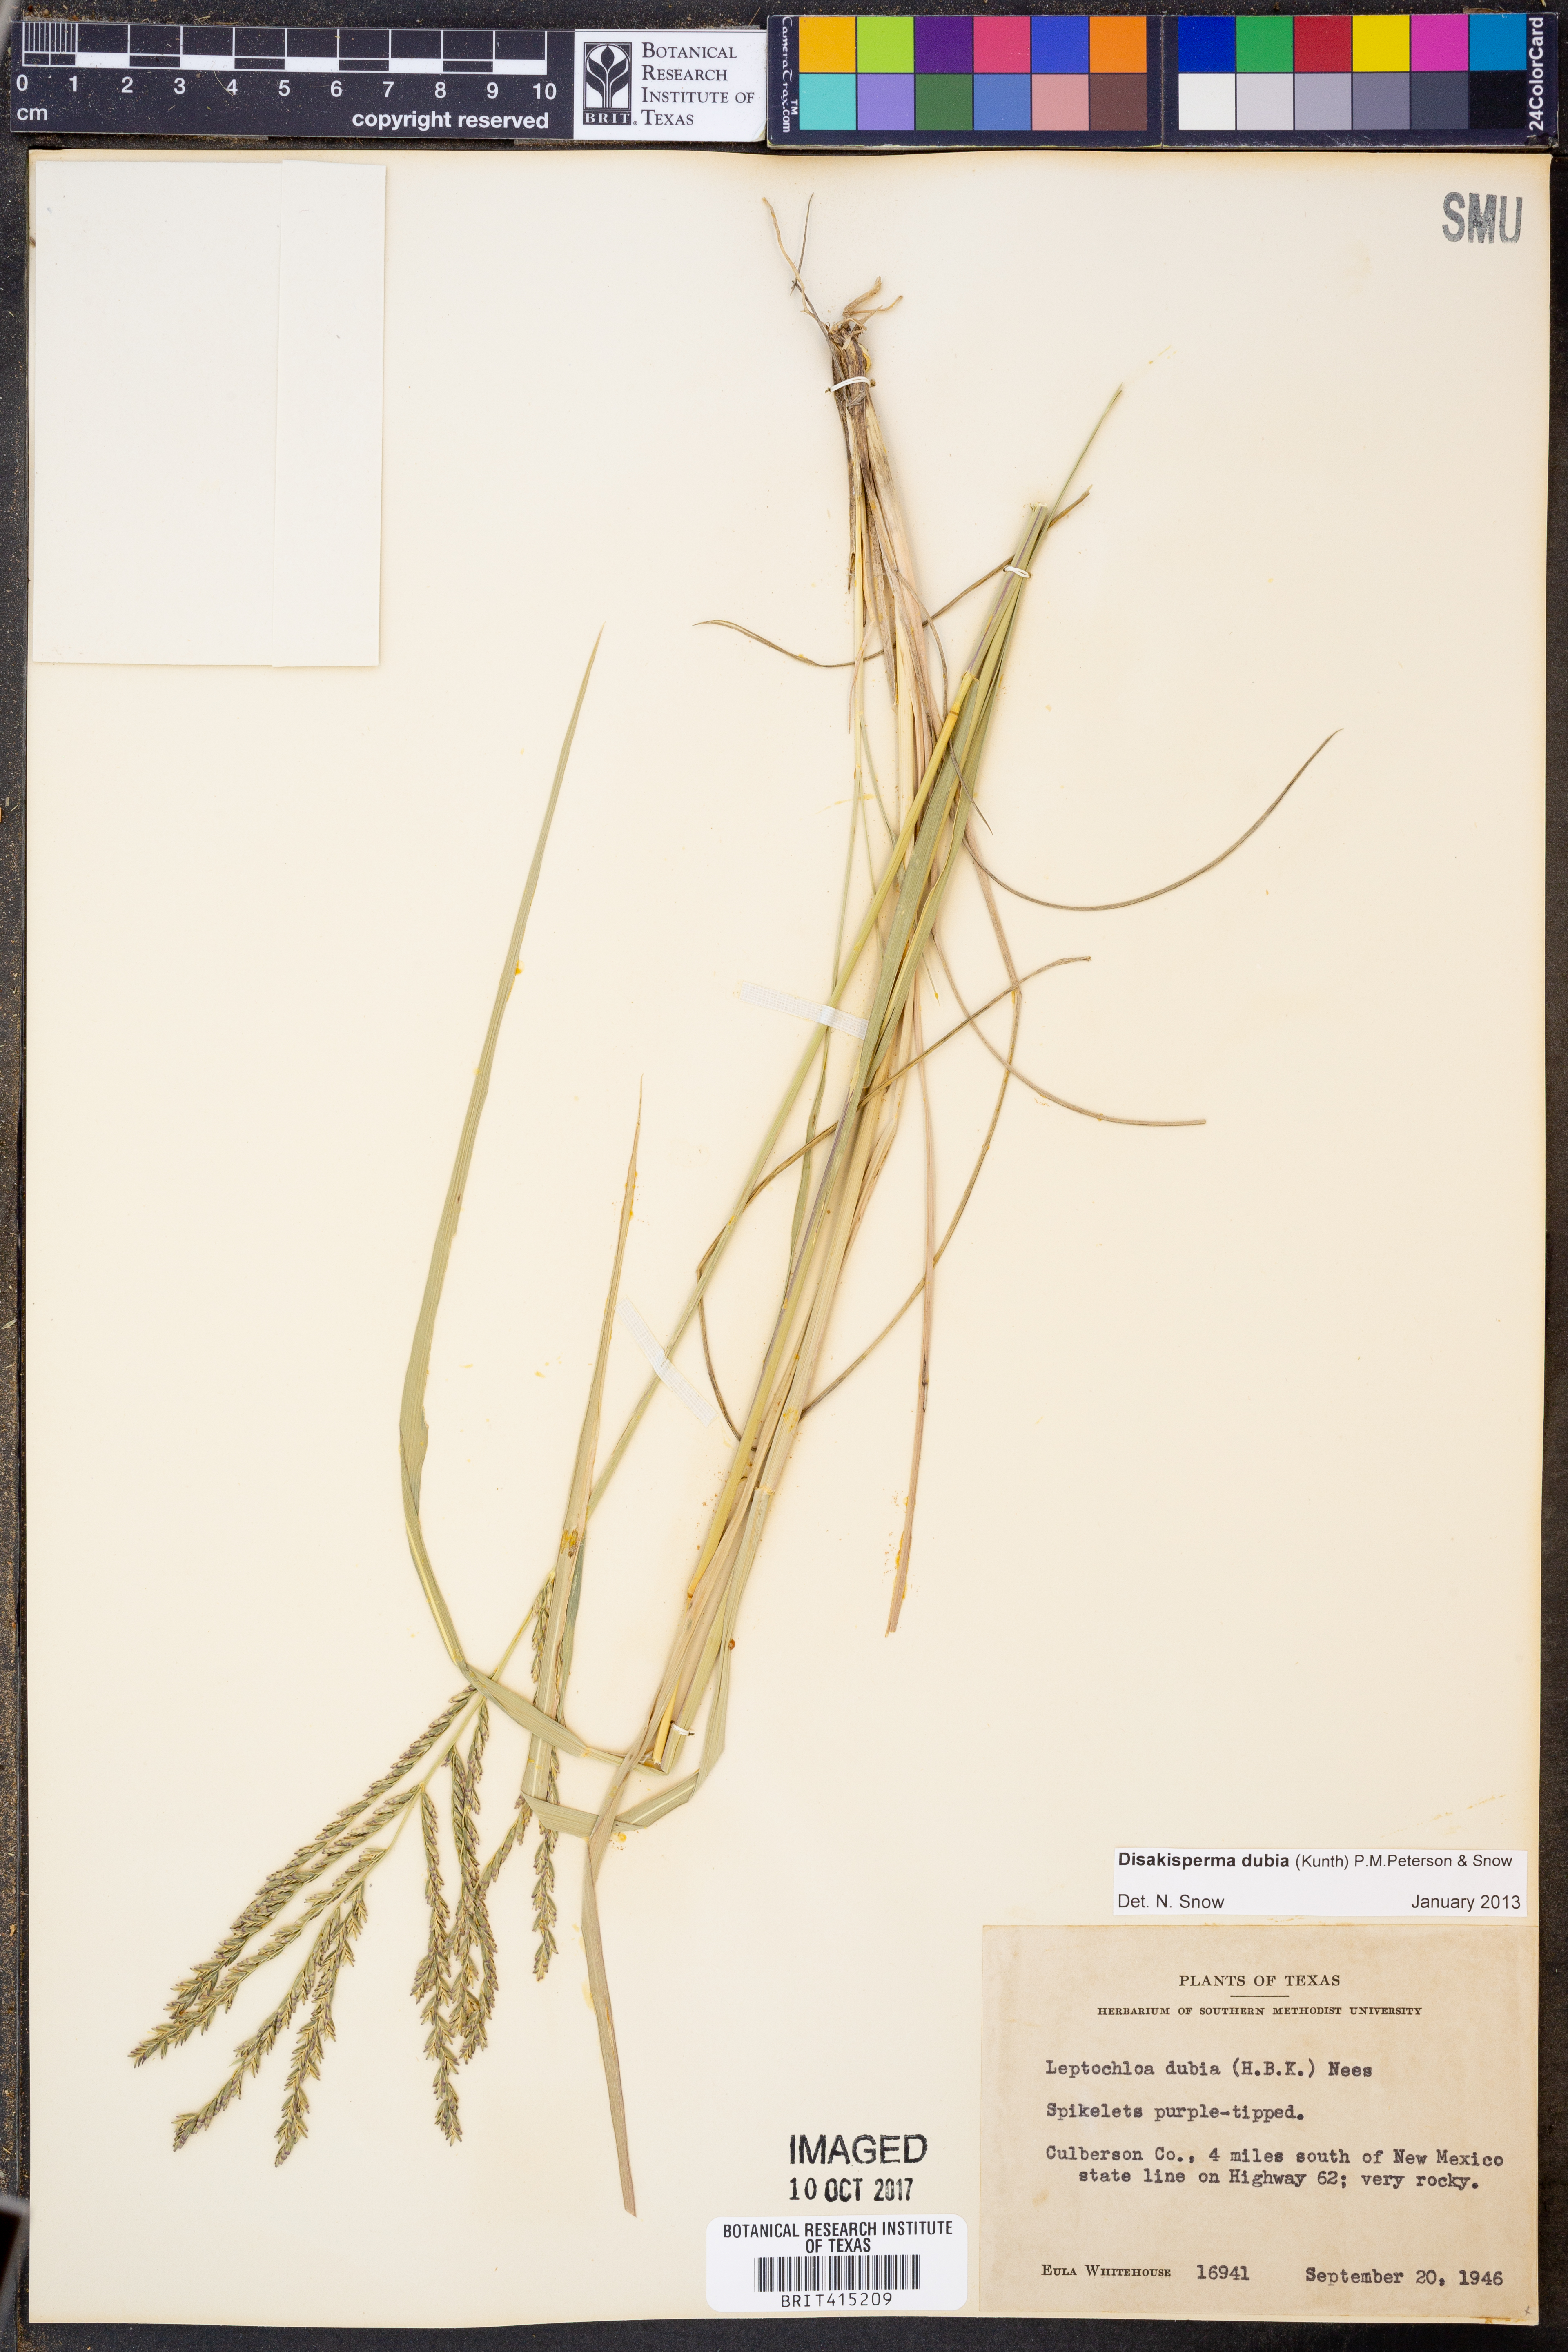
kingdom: Plantae
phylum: Tracheophyta
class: Liliopsida
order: Poales
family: Poaceae
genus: Disakisperma
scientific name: Disakisperma dubium
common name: Green sprangletop
